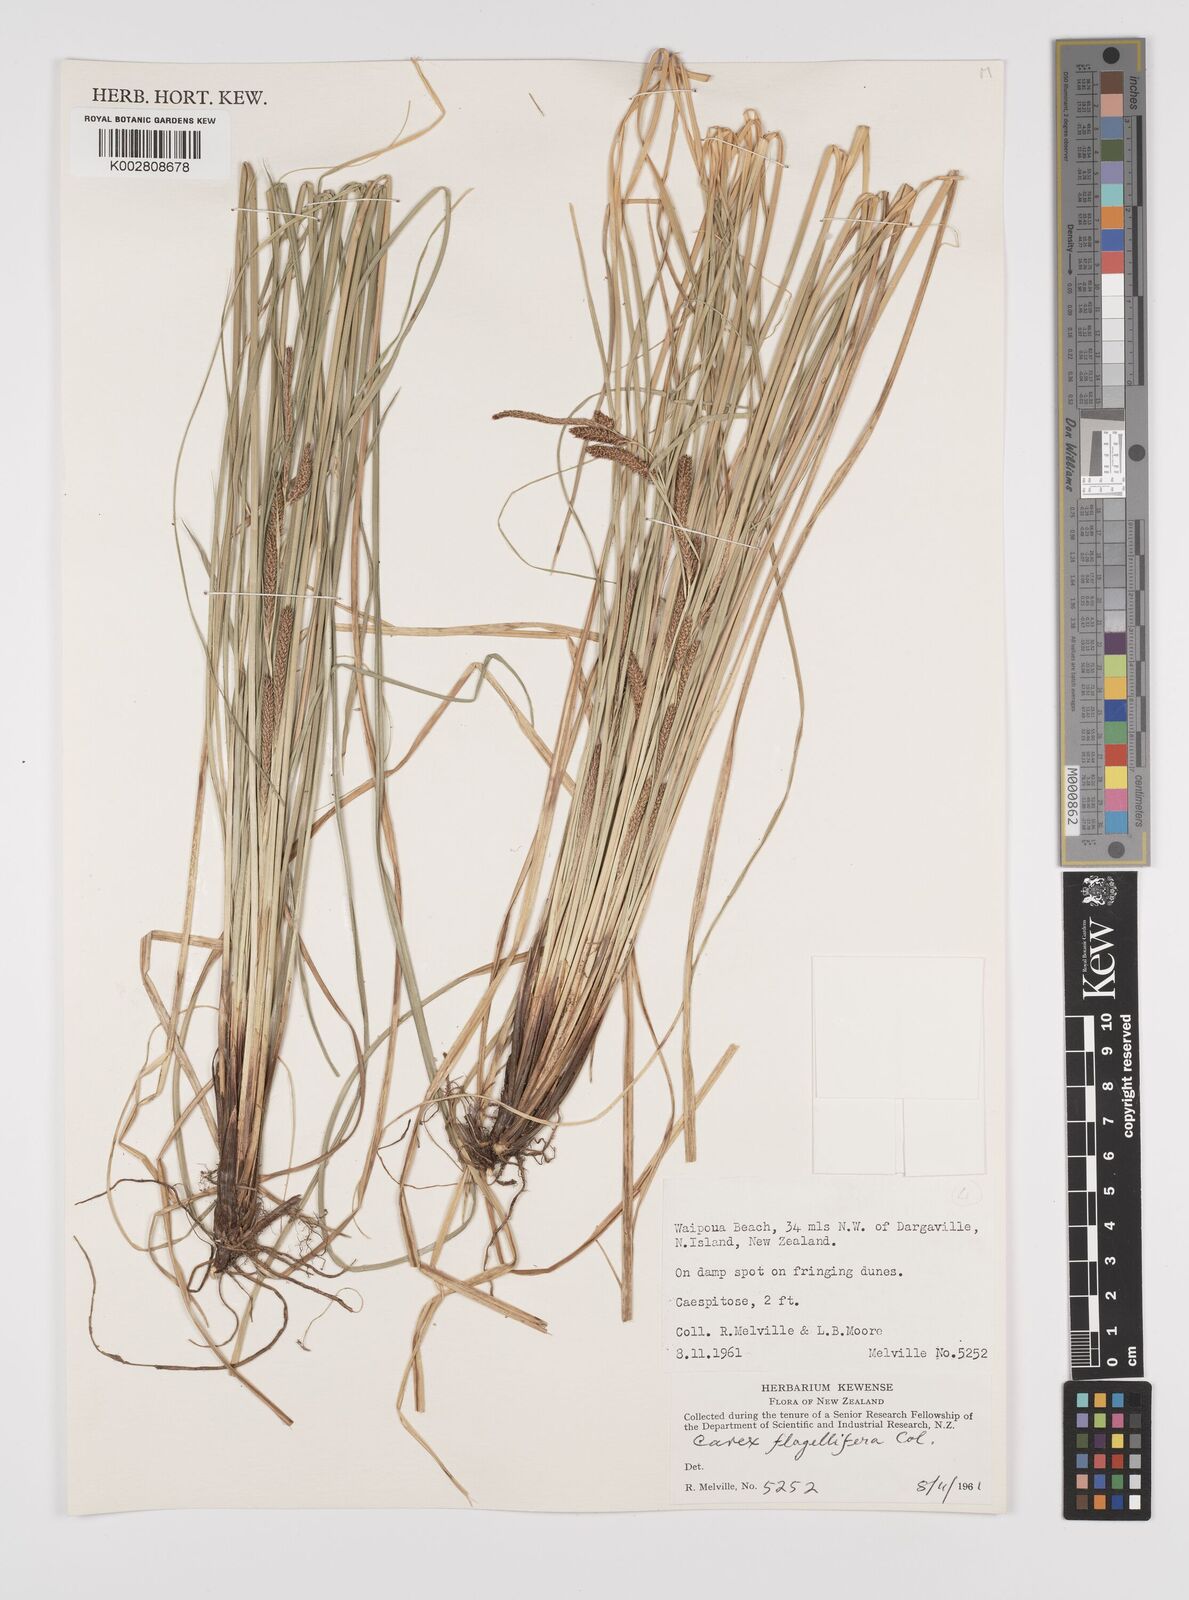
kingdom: Plantae
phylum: Tracheophyta
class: Liliopsida
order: Poales
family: Cyperaceae
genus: Carex
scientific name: Carex flagellifera
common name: Glen murray tussock
